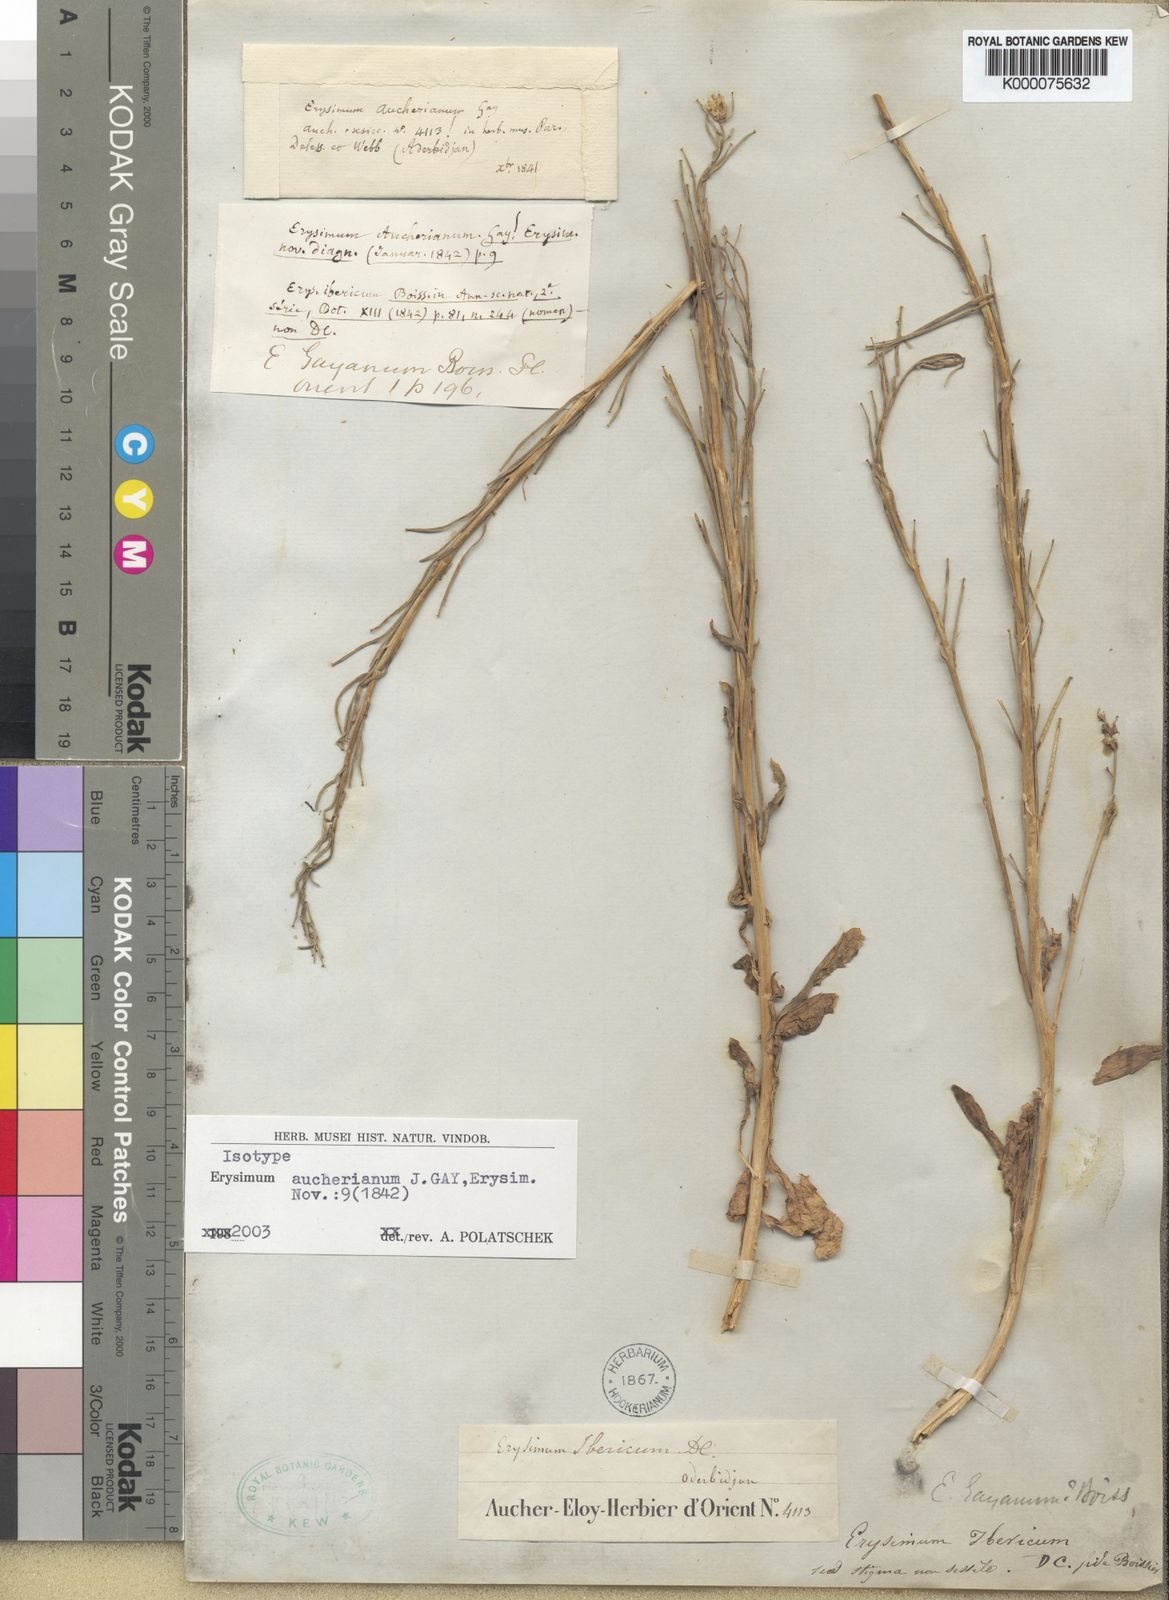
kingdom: Plantae
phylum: Tracheophyta
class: Magnoliopsida
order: Brassicales
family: Brassicaceae
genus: Erysimum
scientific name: Erysimum aucherianum
